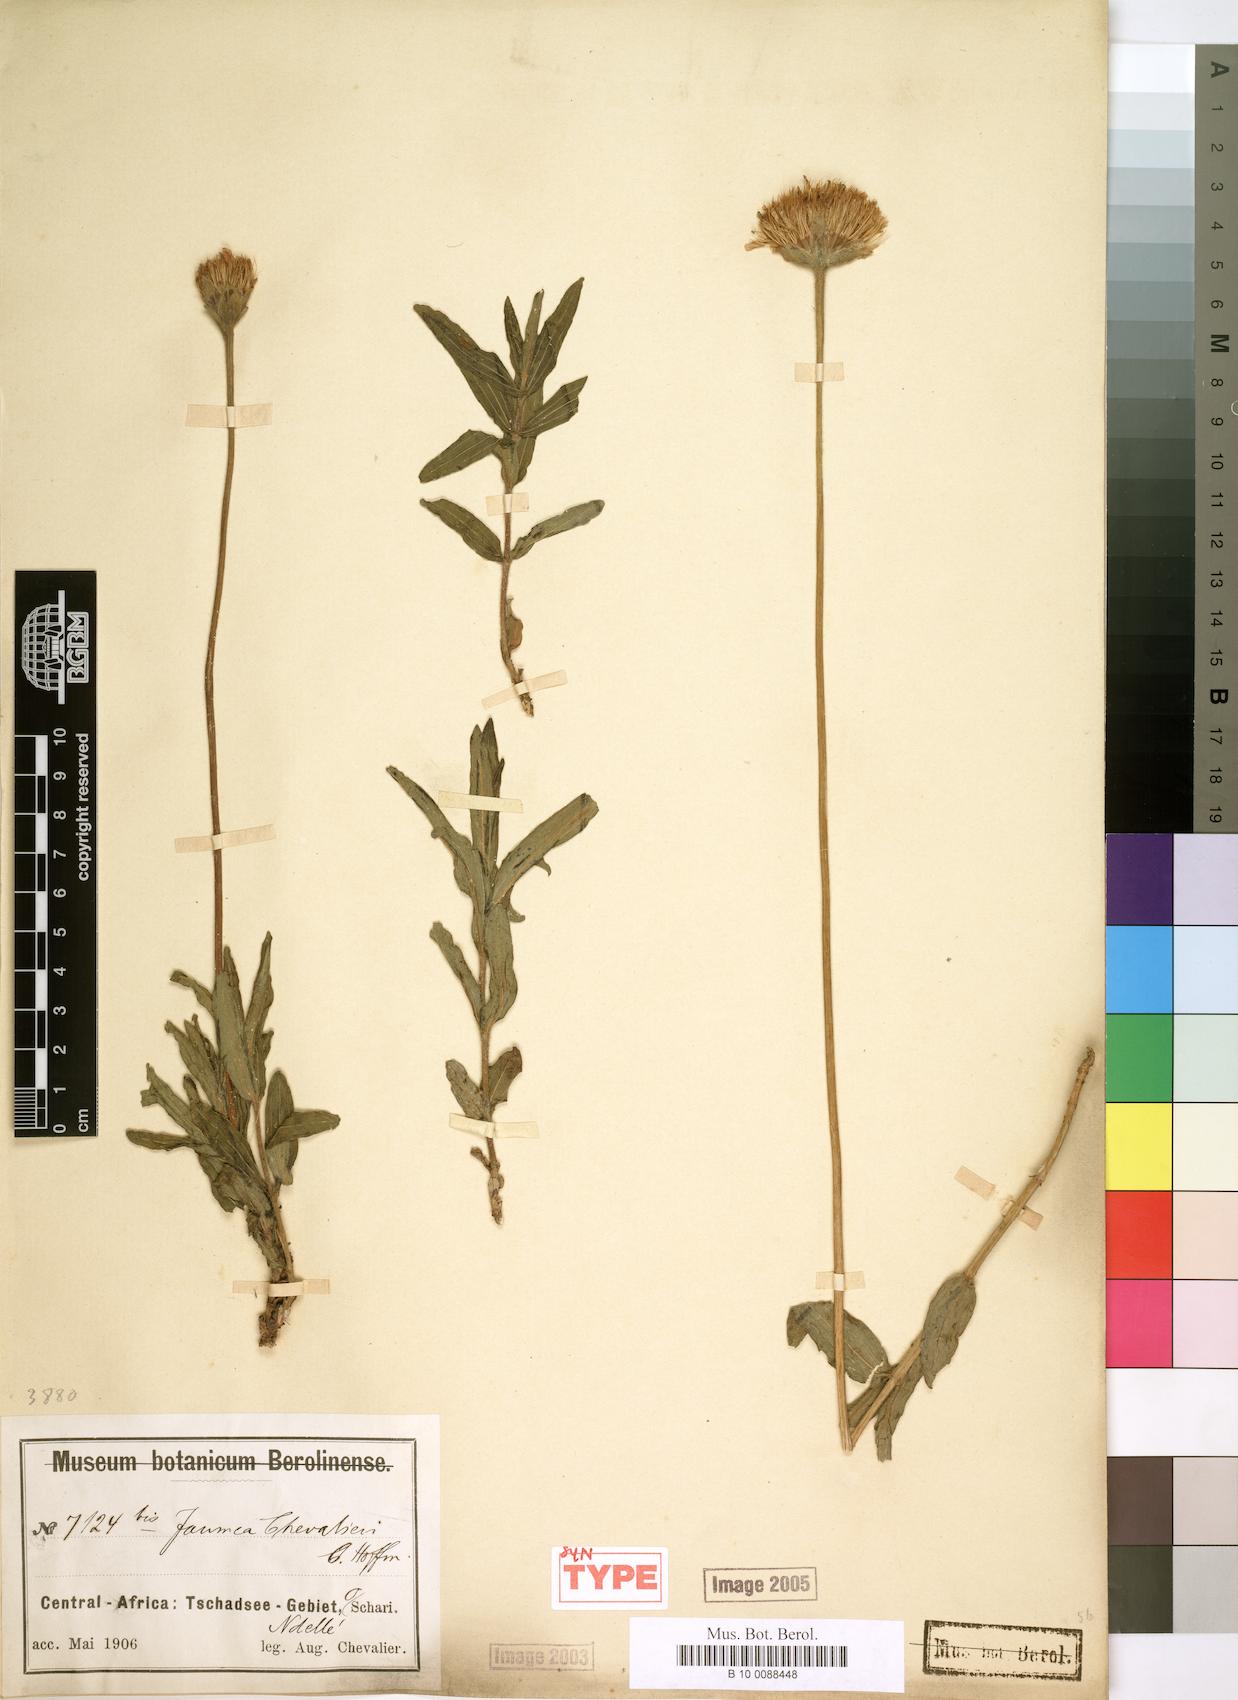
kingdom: Plantae
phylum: Tracheophyta
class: Magnoliopsida
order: Asterales
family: Asteraceae
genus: Hypericophyllum
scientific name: Hypericophyllum chevalieri
